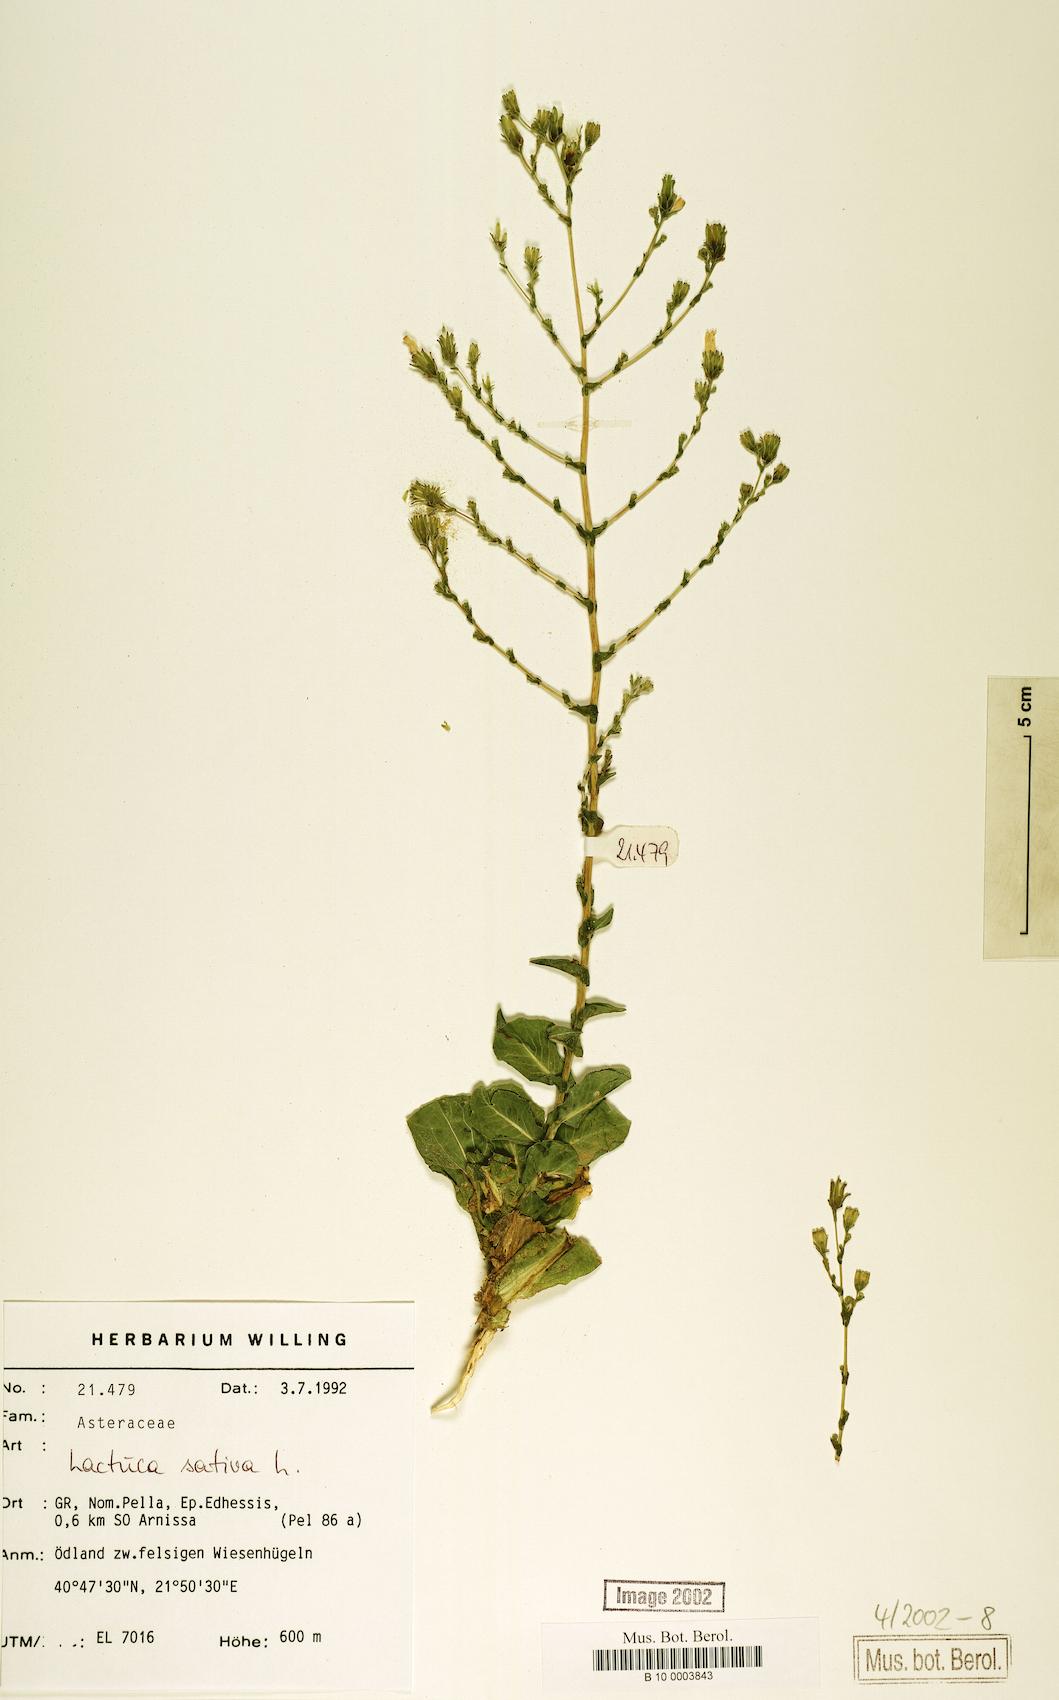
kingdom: Plantae
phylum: Tracheophyta
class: Magnoliopsida
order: Asterales
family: Asteraceae
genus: Lactuca
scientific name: Lactuca sativa
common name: Garden lettuce
